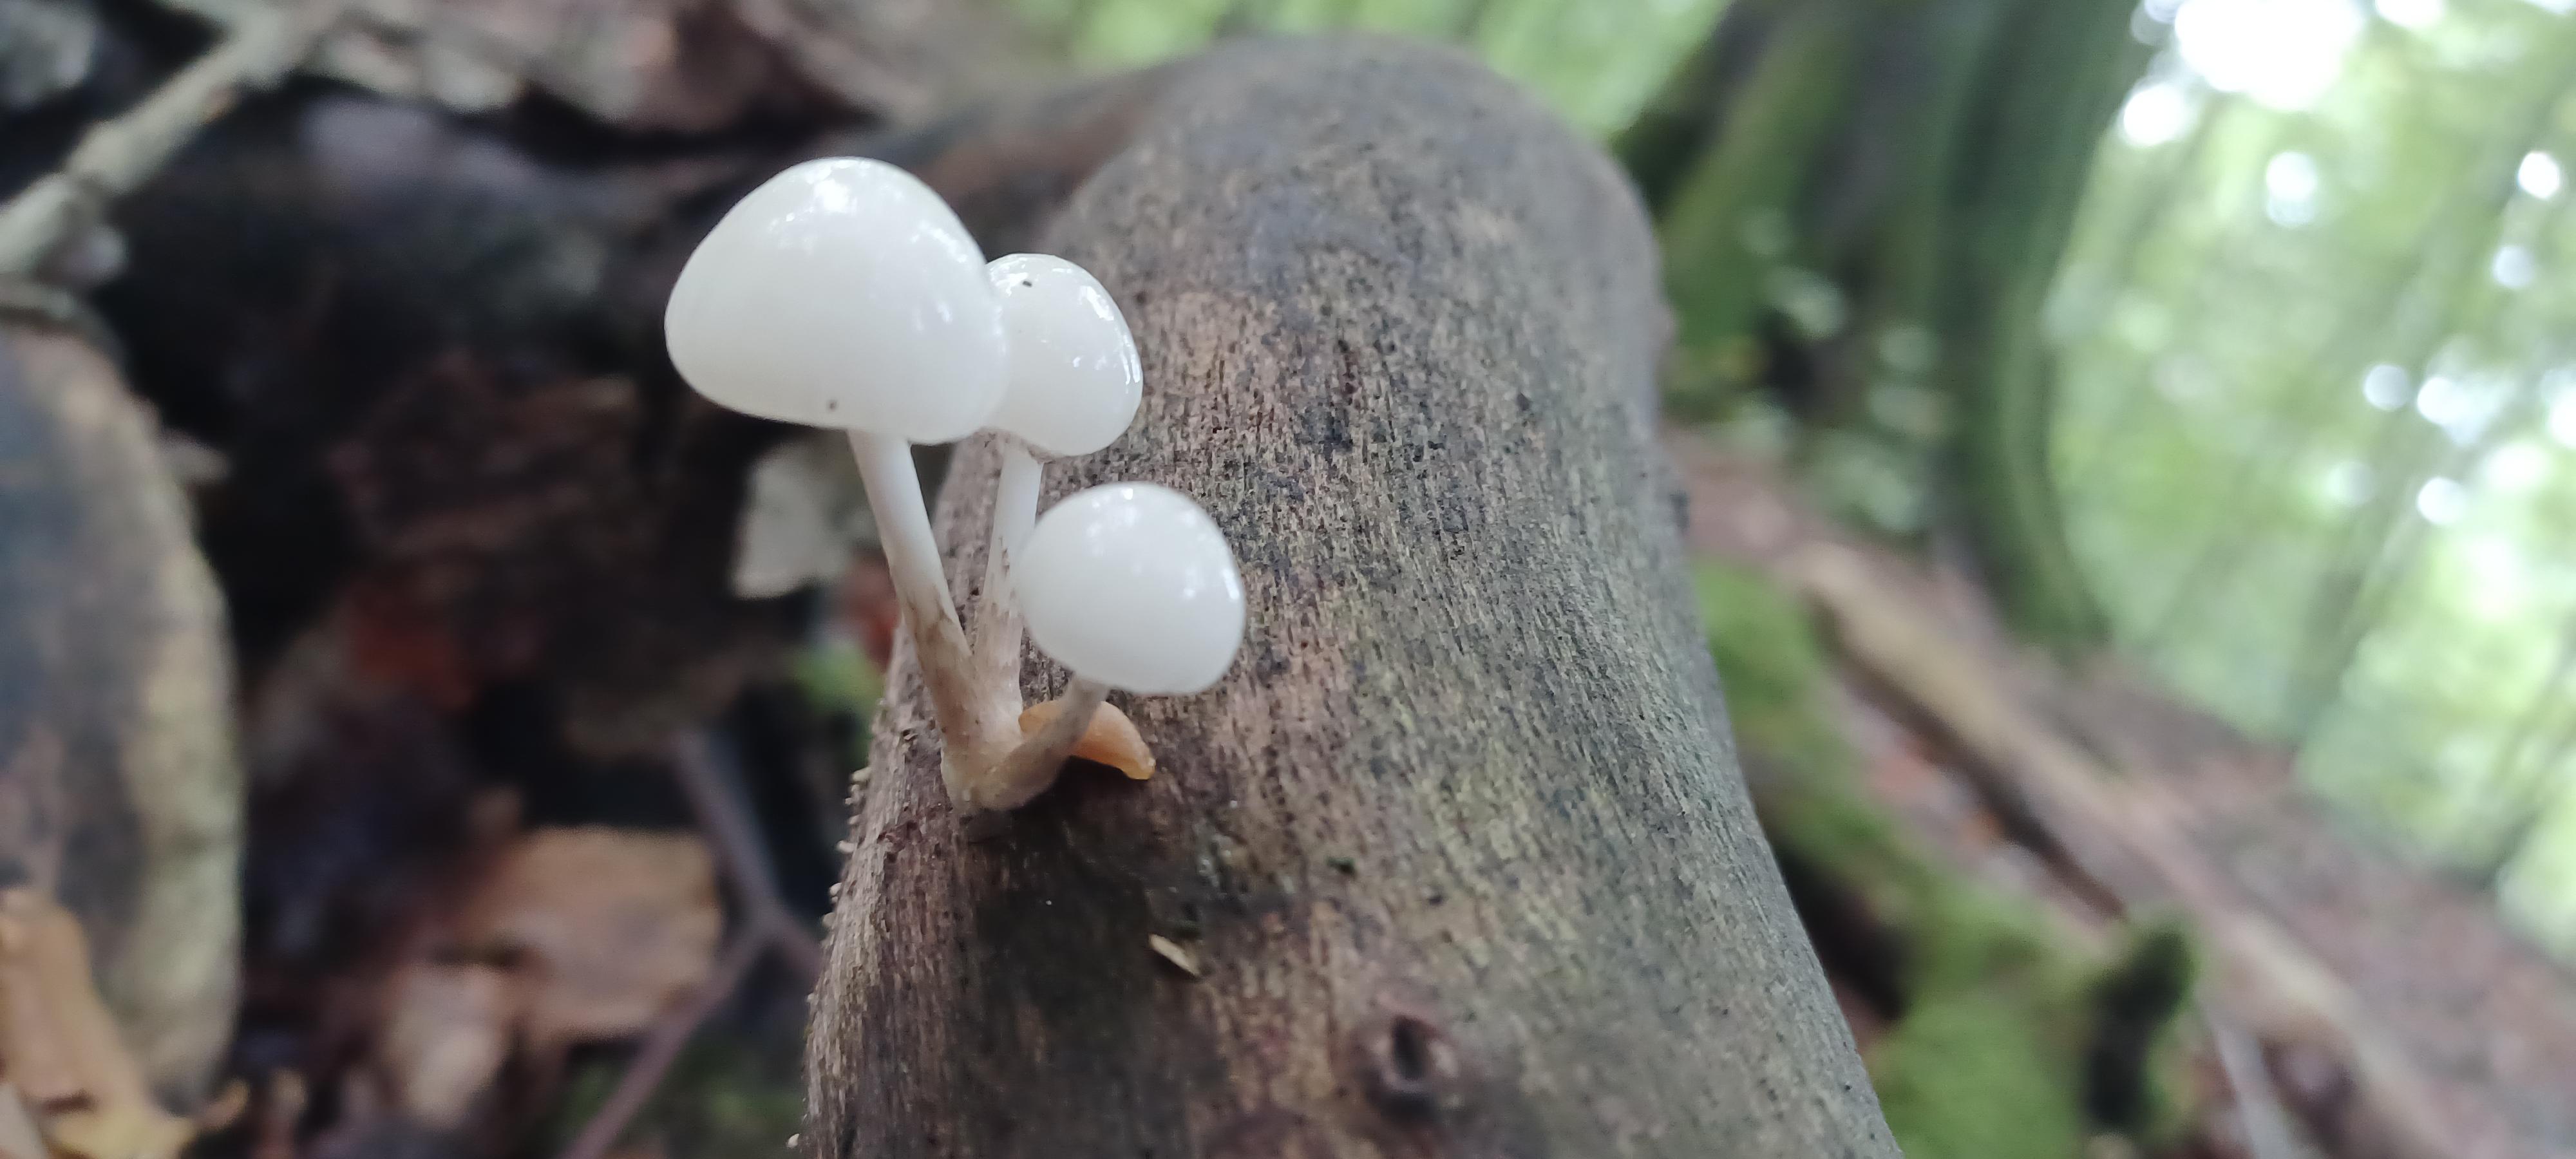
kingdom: Fungi
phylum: Basidiomycota
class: Agaricomycetes
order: Agaricales
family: Physalacriaceae
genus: Mucidula
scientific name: Mucidula mucida
